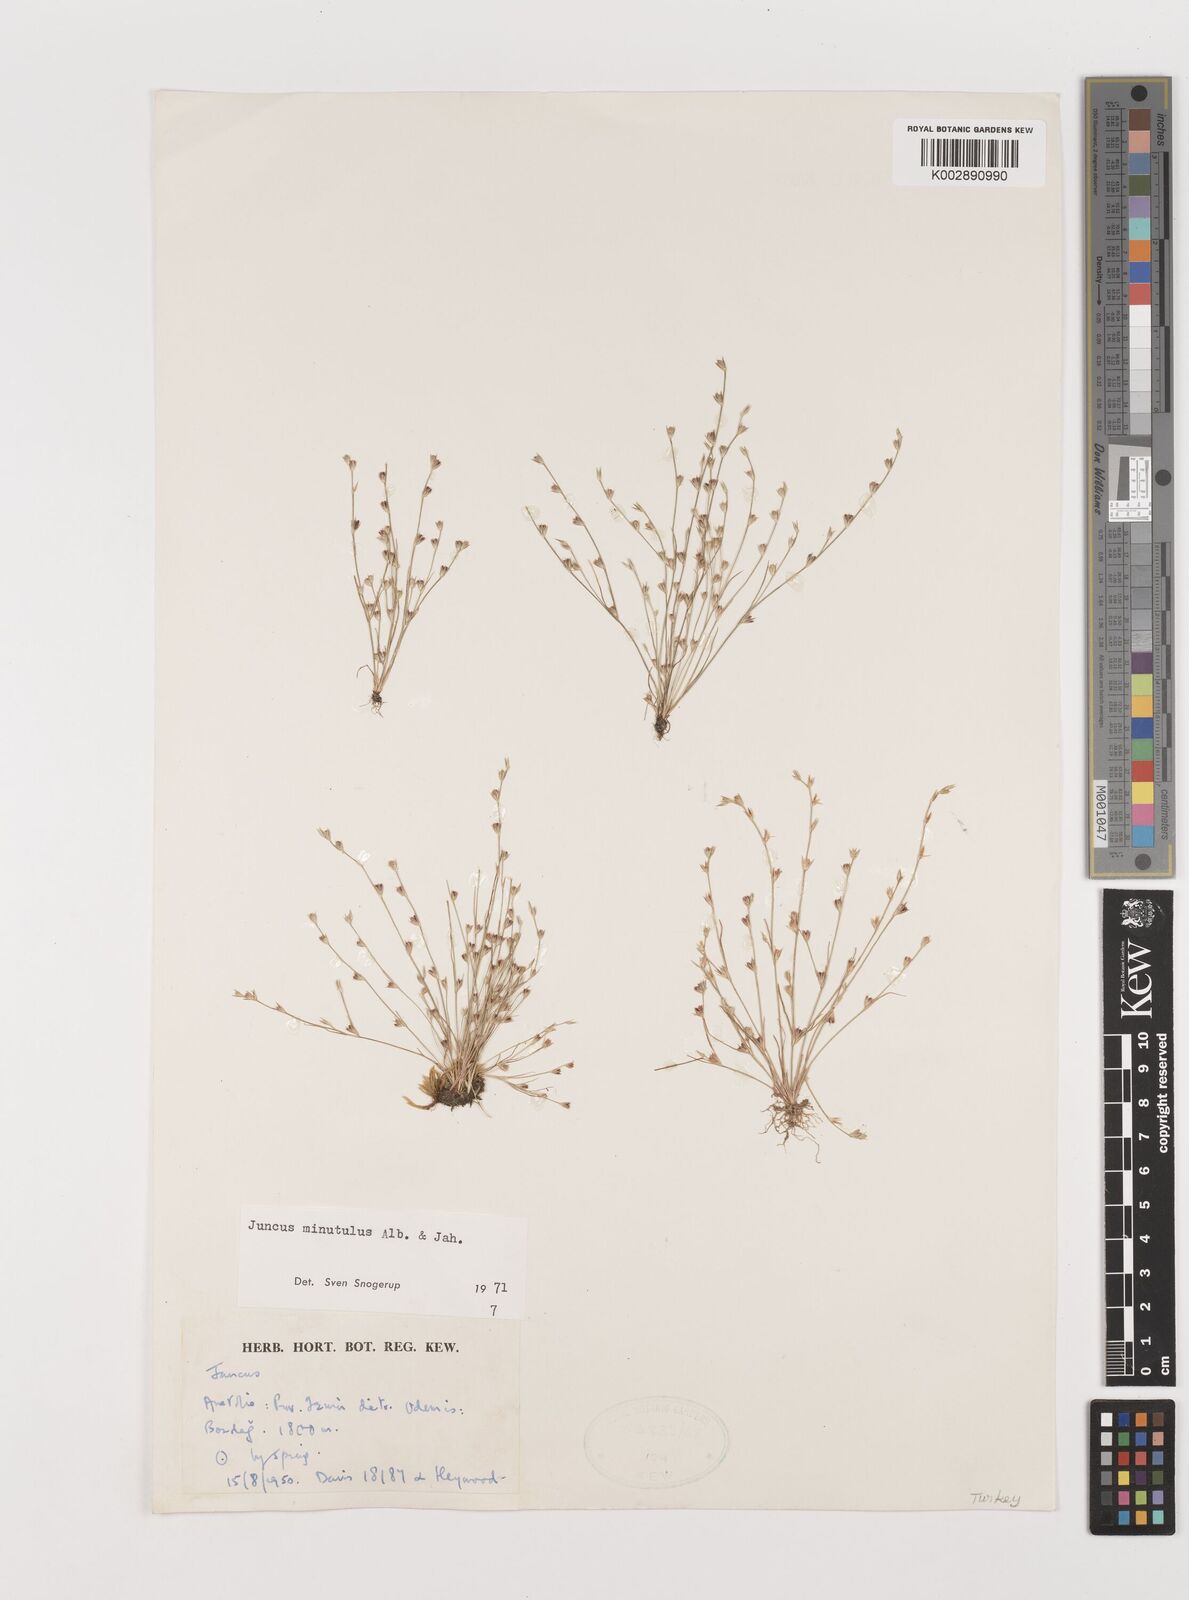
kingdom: Plantae
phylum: Tracheophyta
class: Liliopsida
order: Poales
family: Juncaceae
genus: Juncus
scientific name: Juncus bufonius
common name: Toad rush
